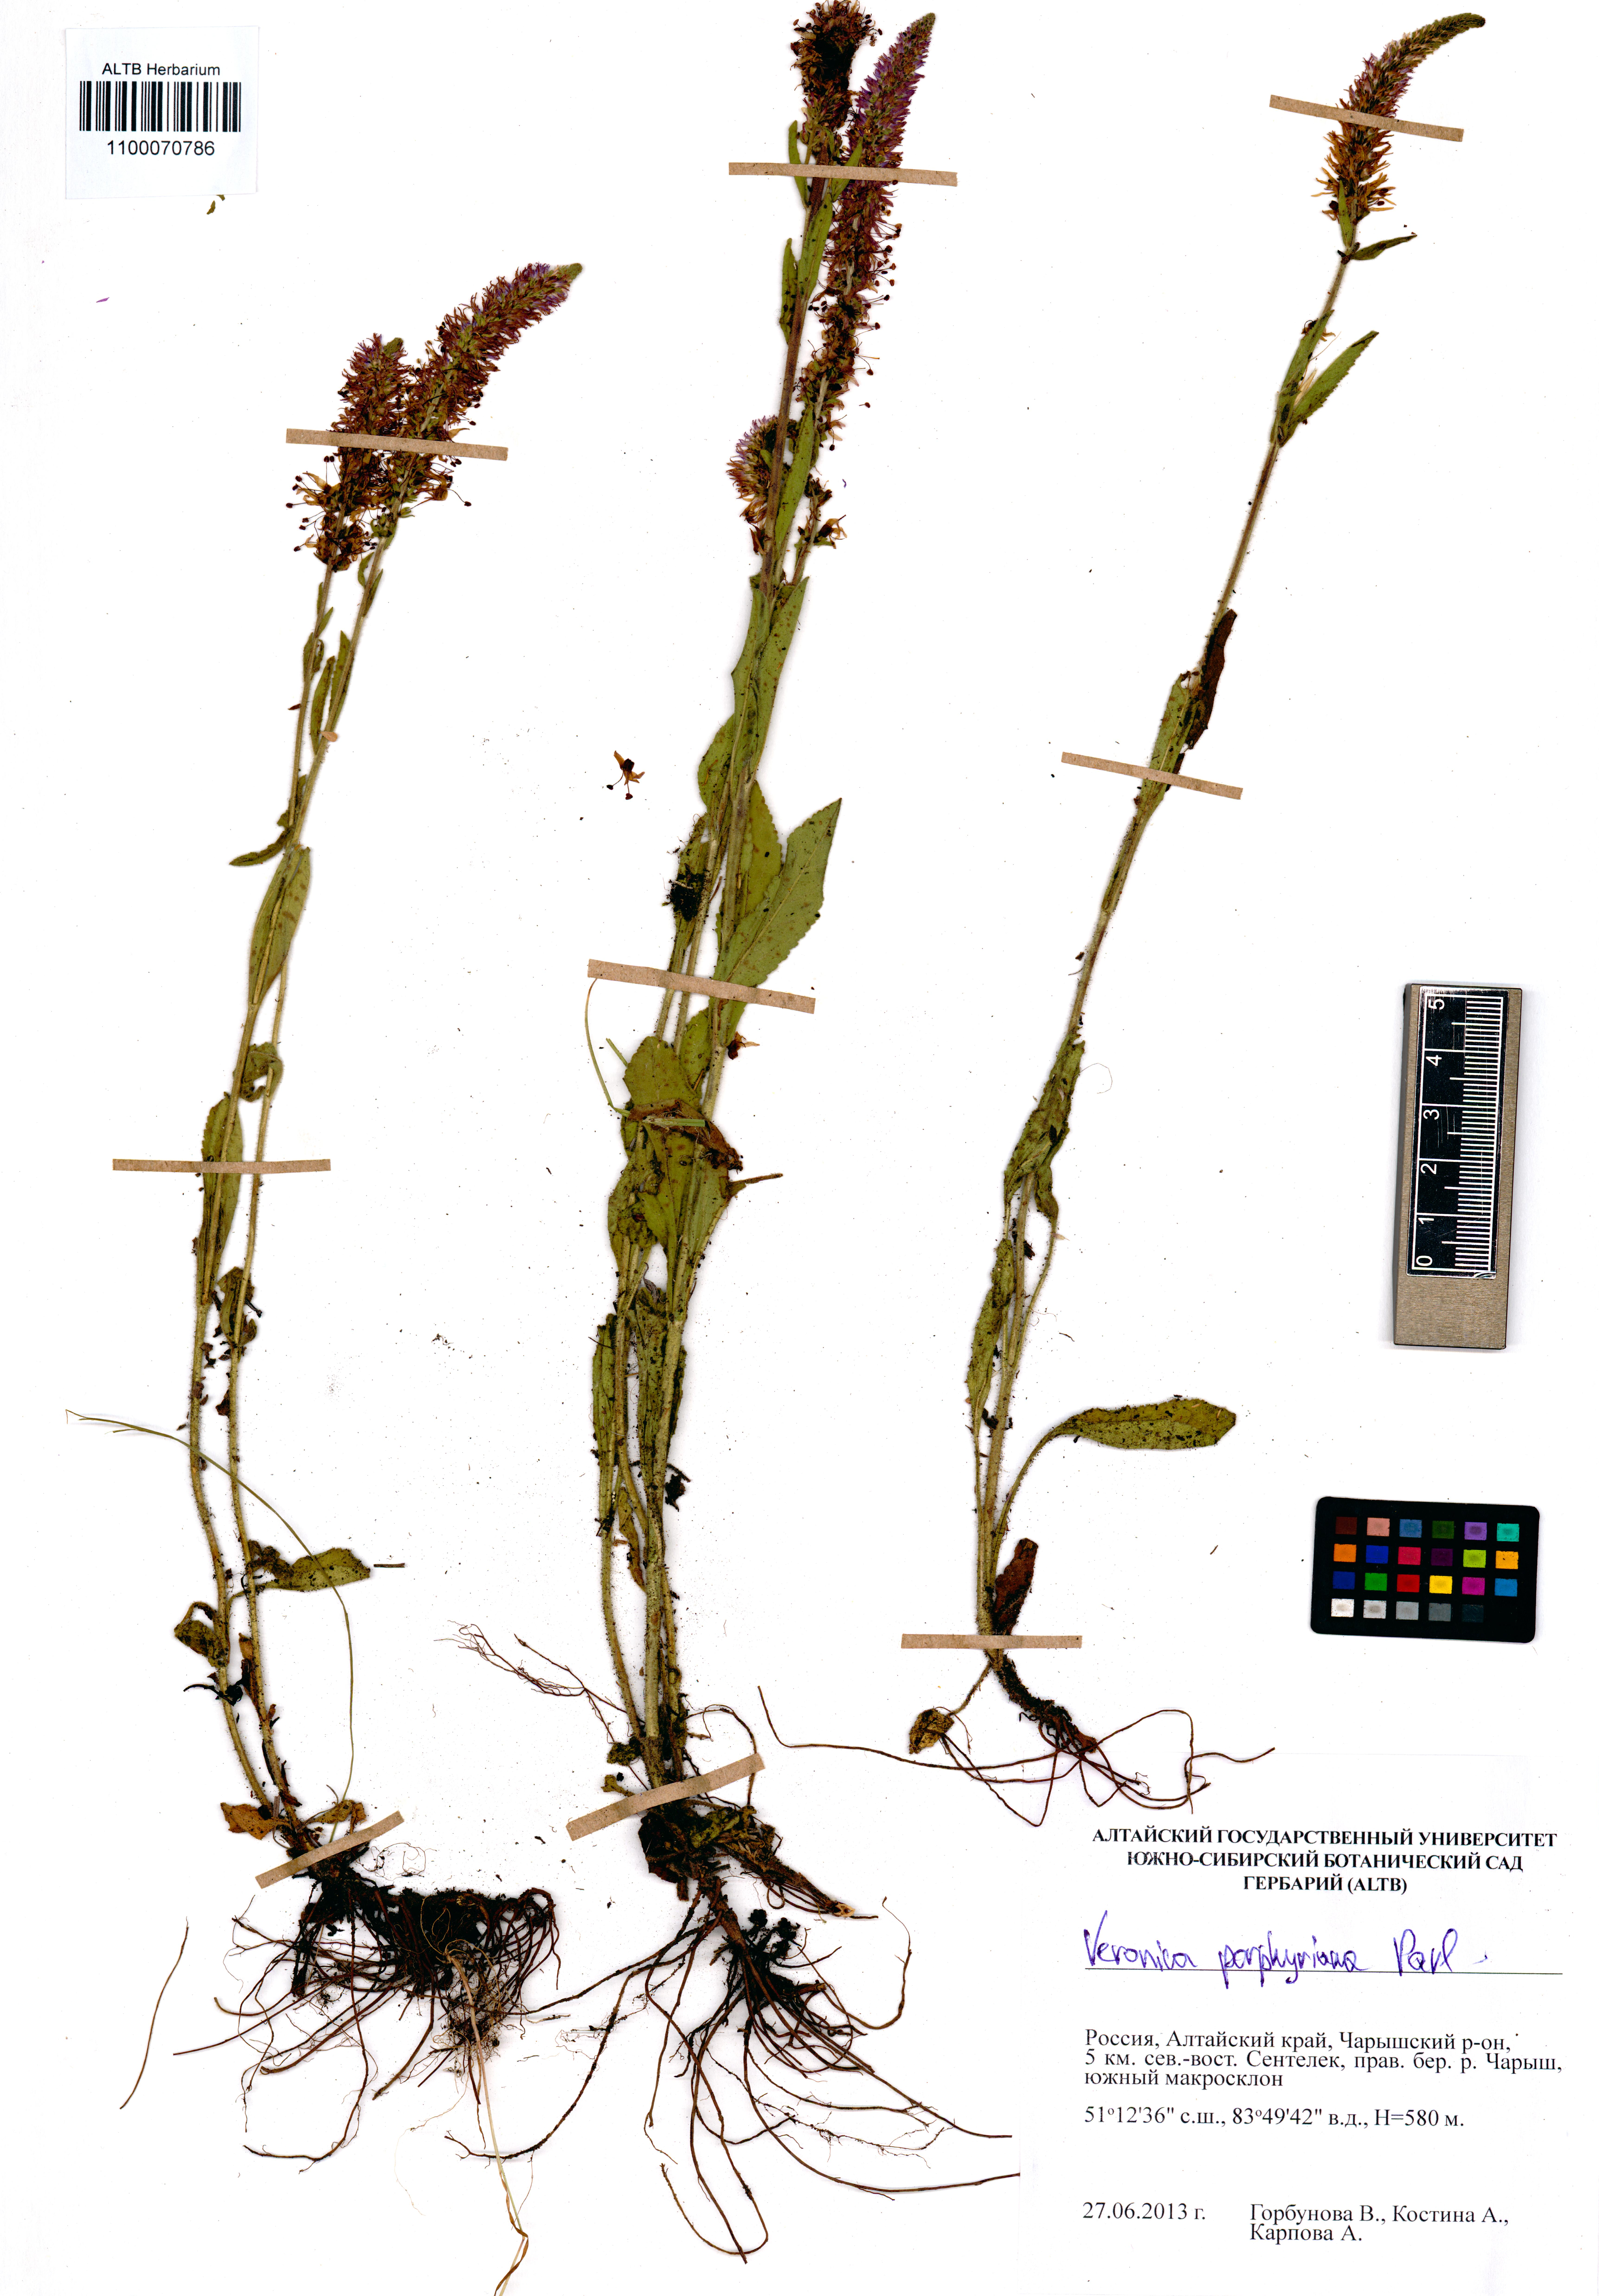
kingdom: Plantae
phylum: Tracheophyta
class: Magnoliopsida
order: Lamiales
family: Plantaginaceae
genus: Veronica
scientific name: Veronica porphyriana
